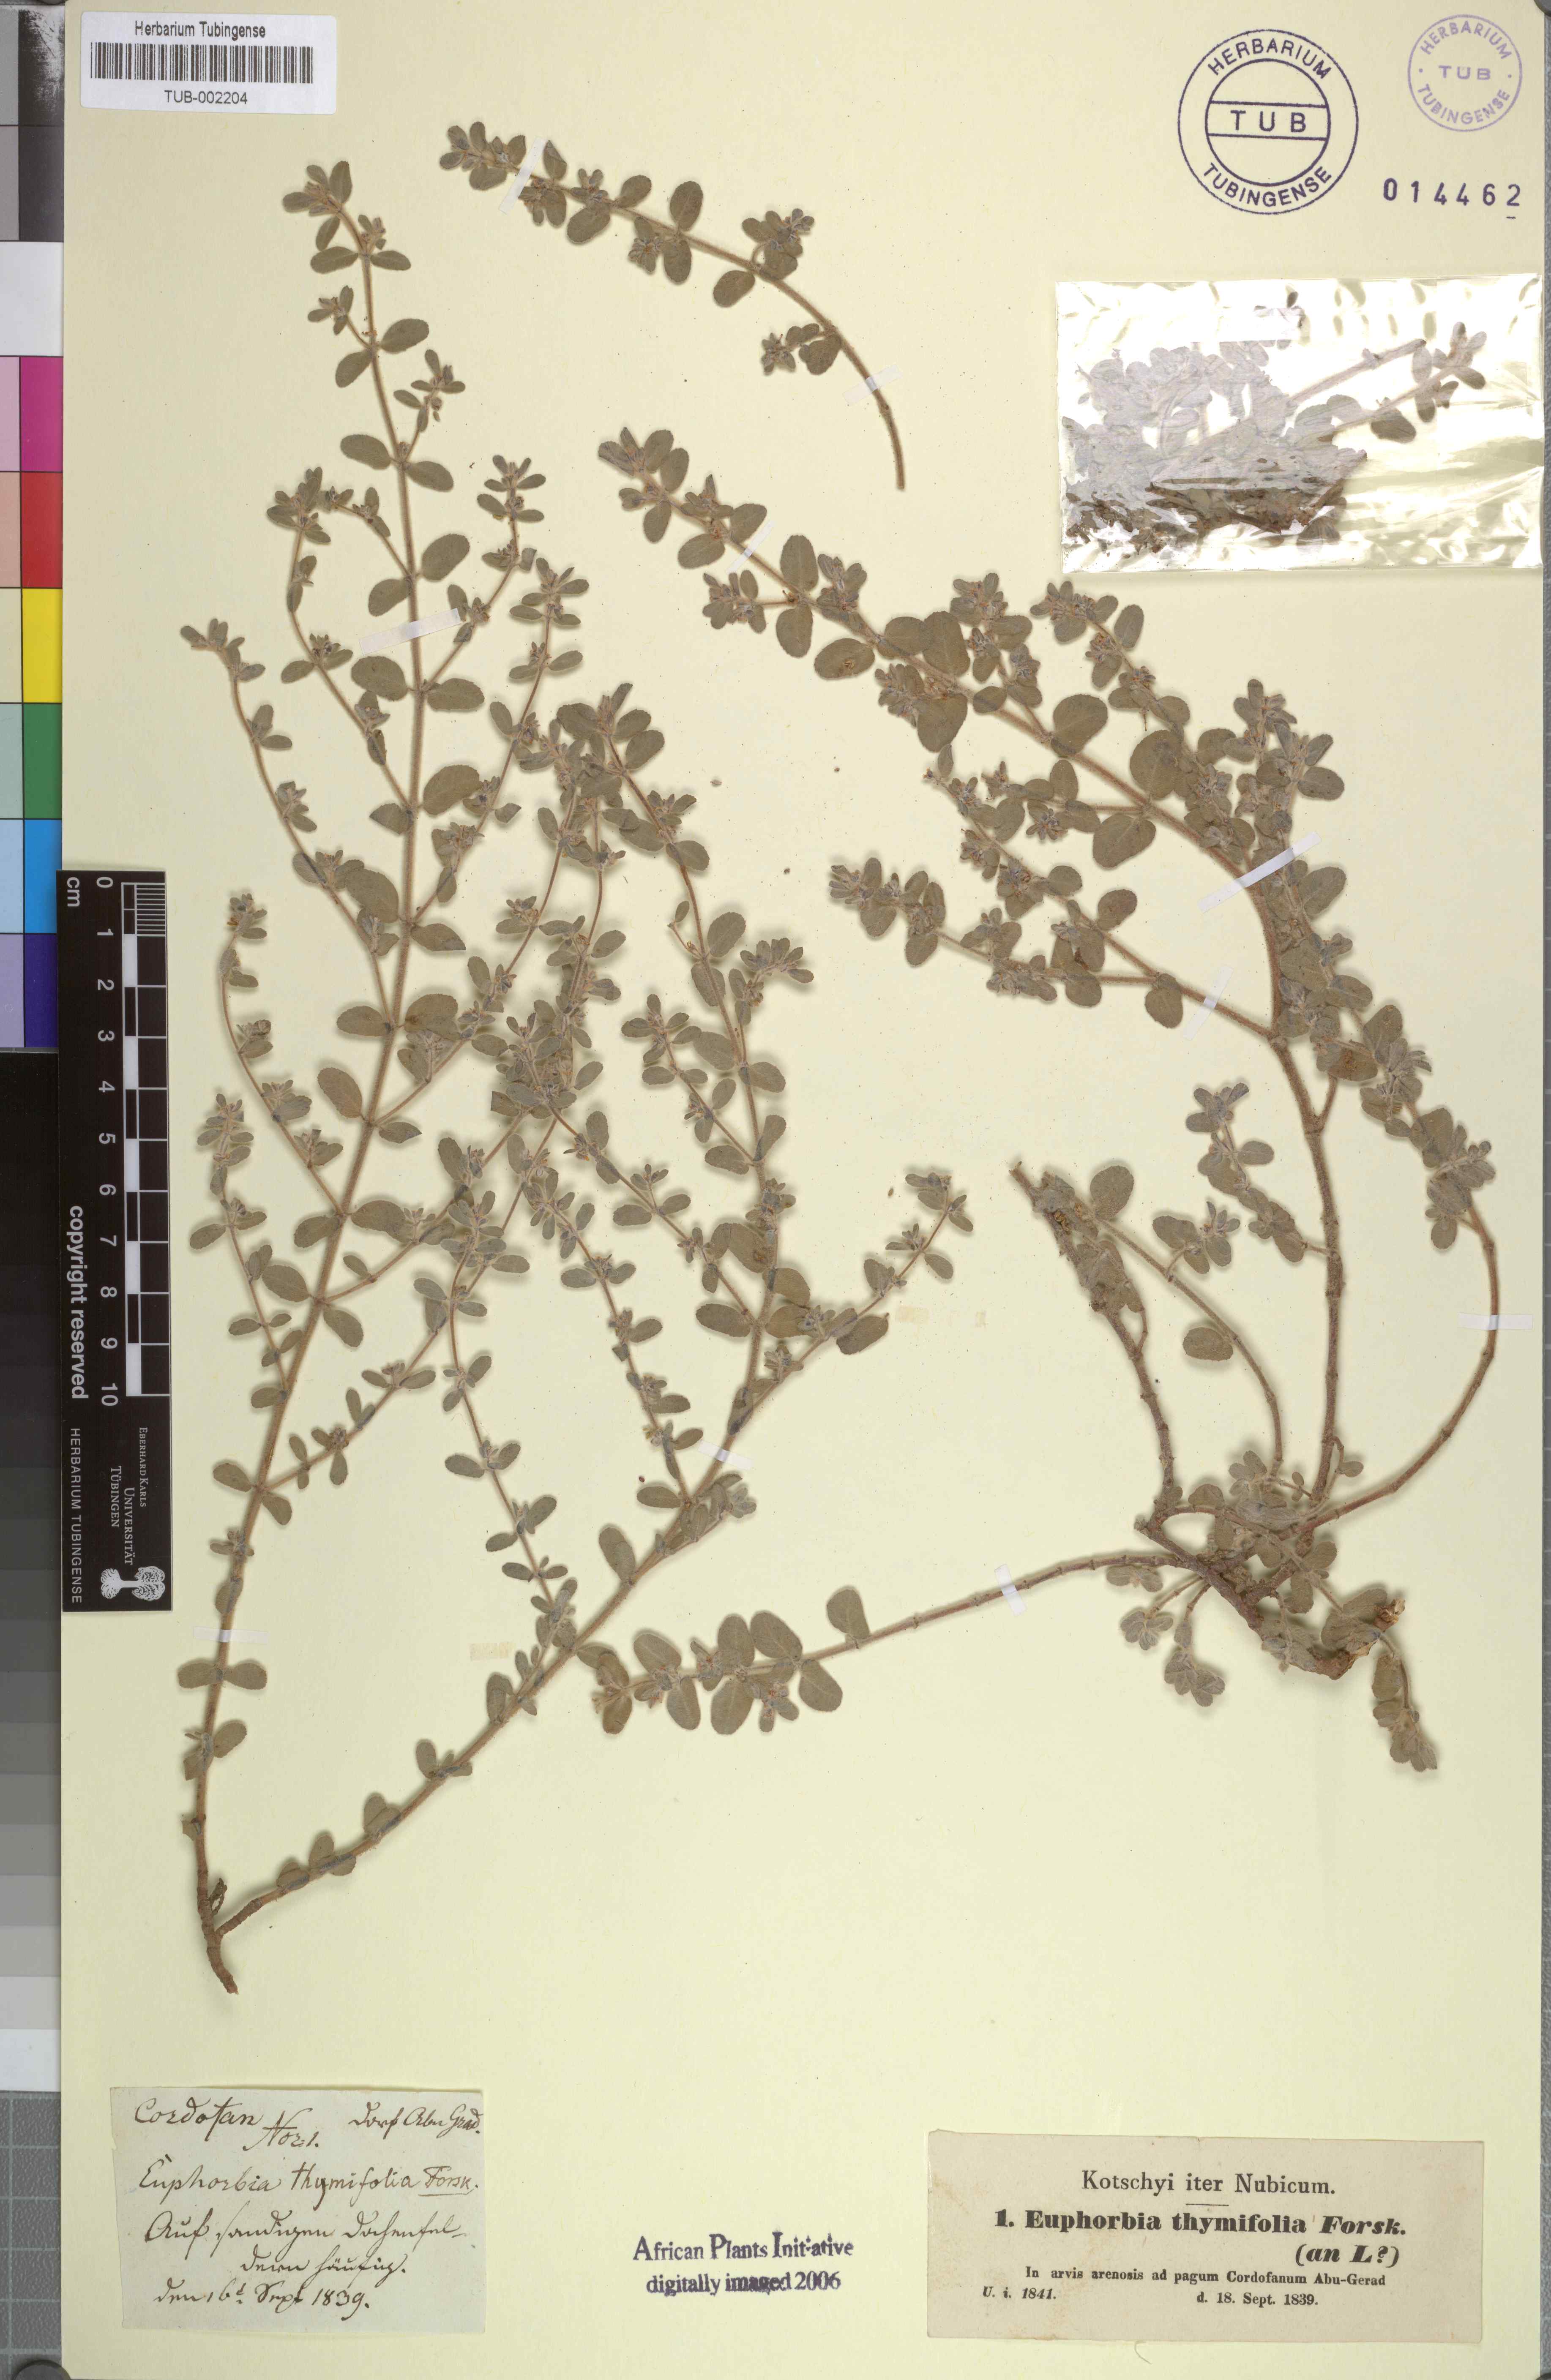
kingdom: Plantae
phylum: Tracheophyta
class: Magnoliopsida
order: Malpighiales
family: Euphorbiaceae
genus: Euphorbia
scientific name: Euphorbia scordiifolia
